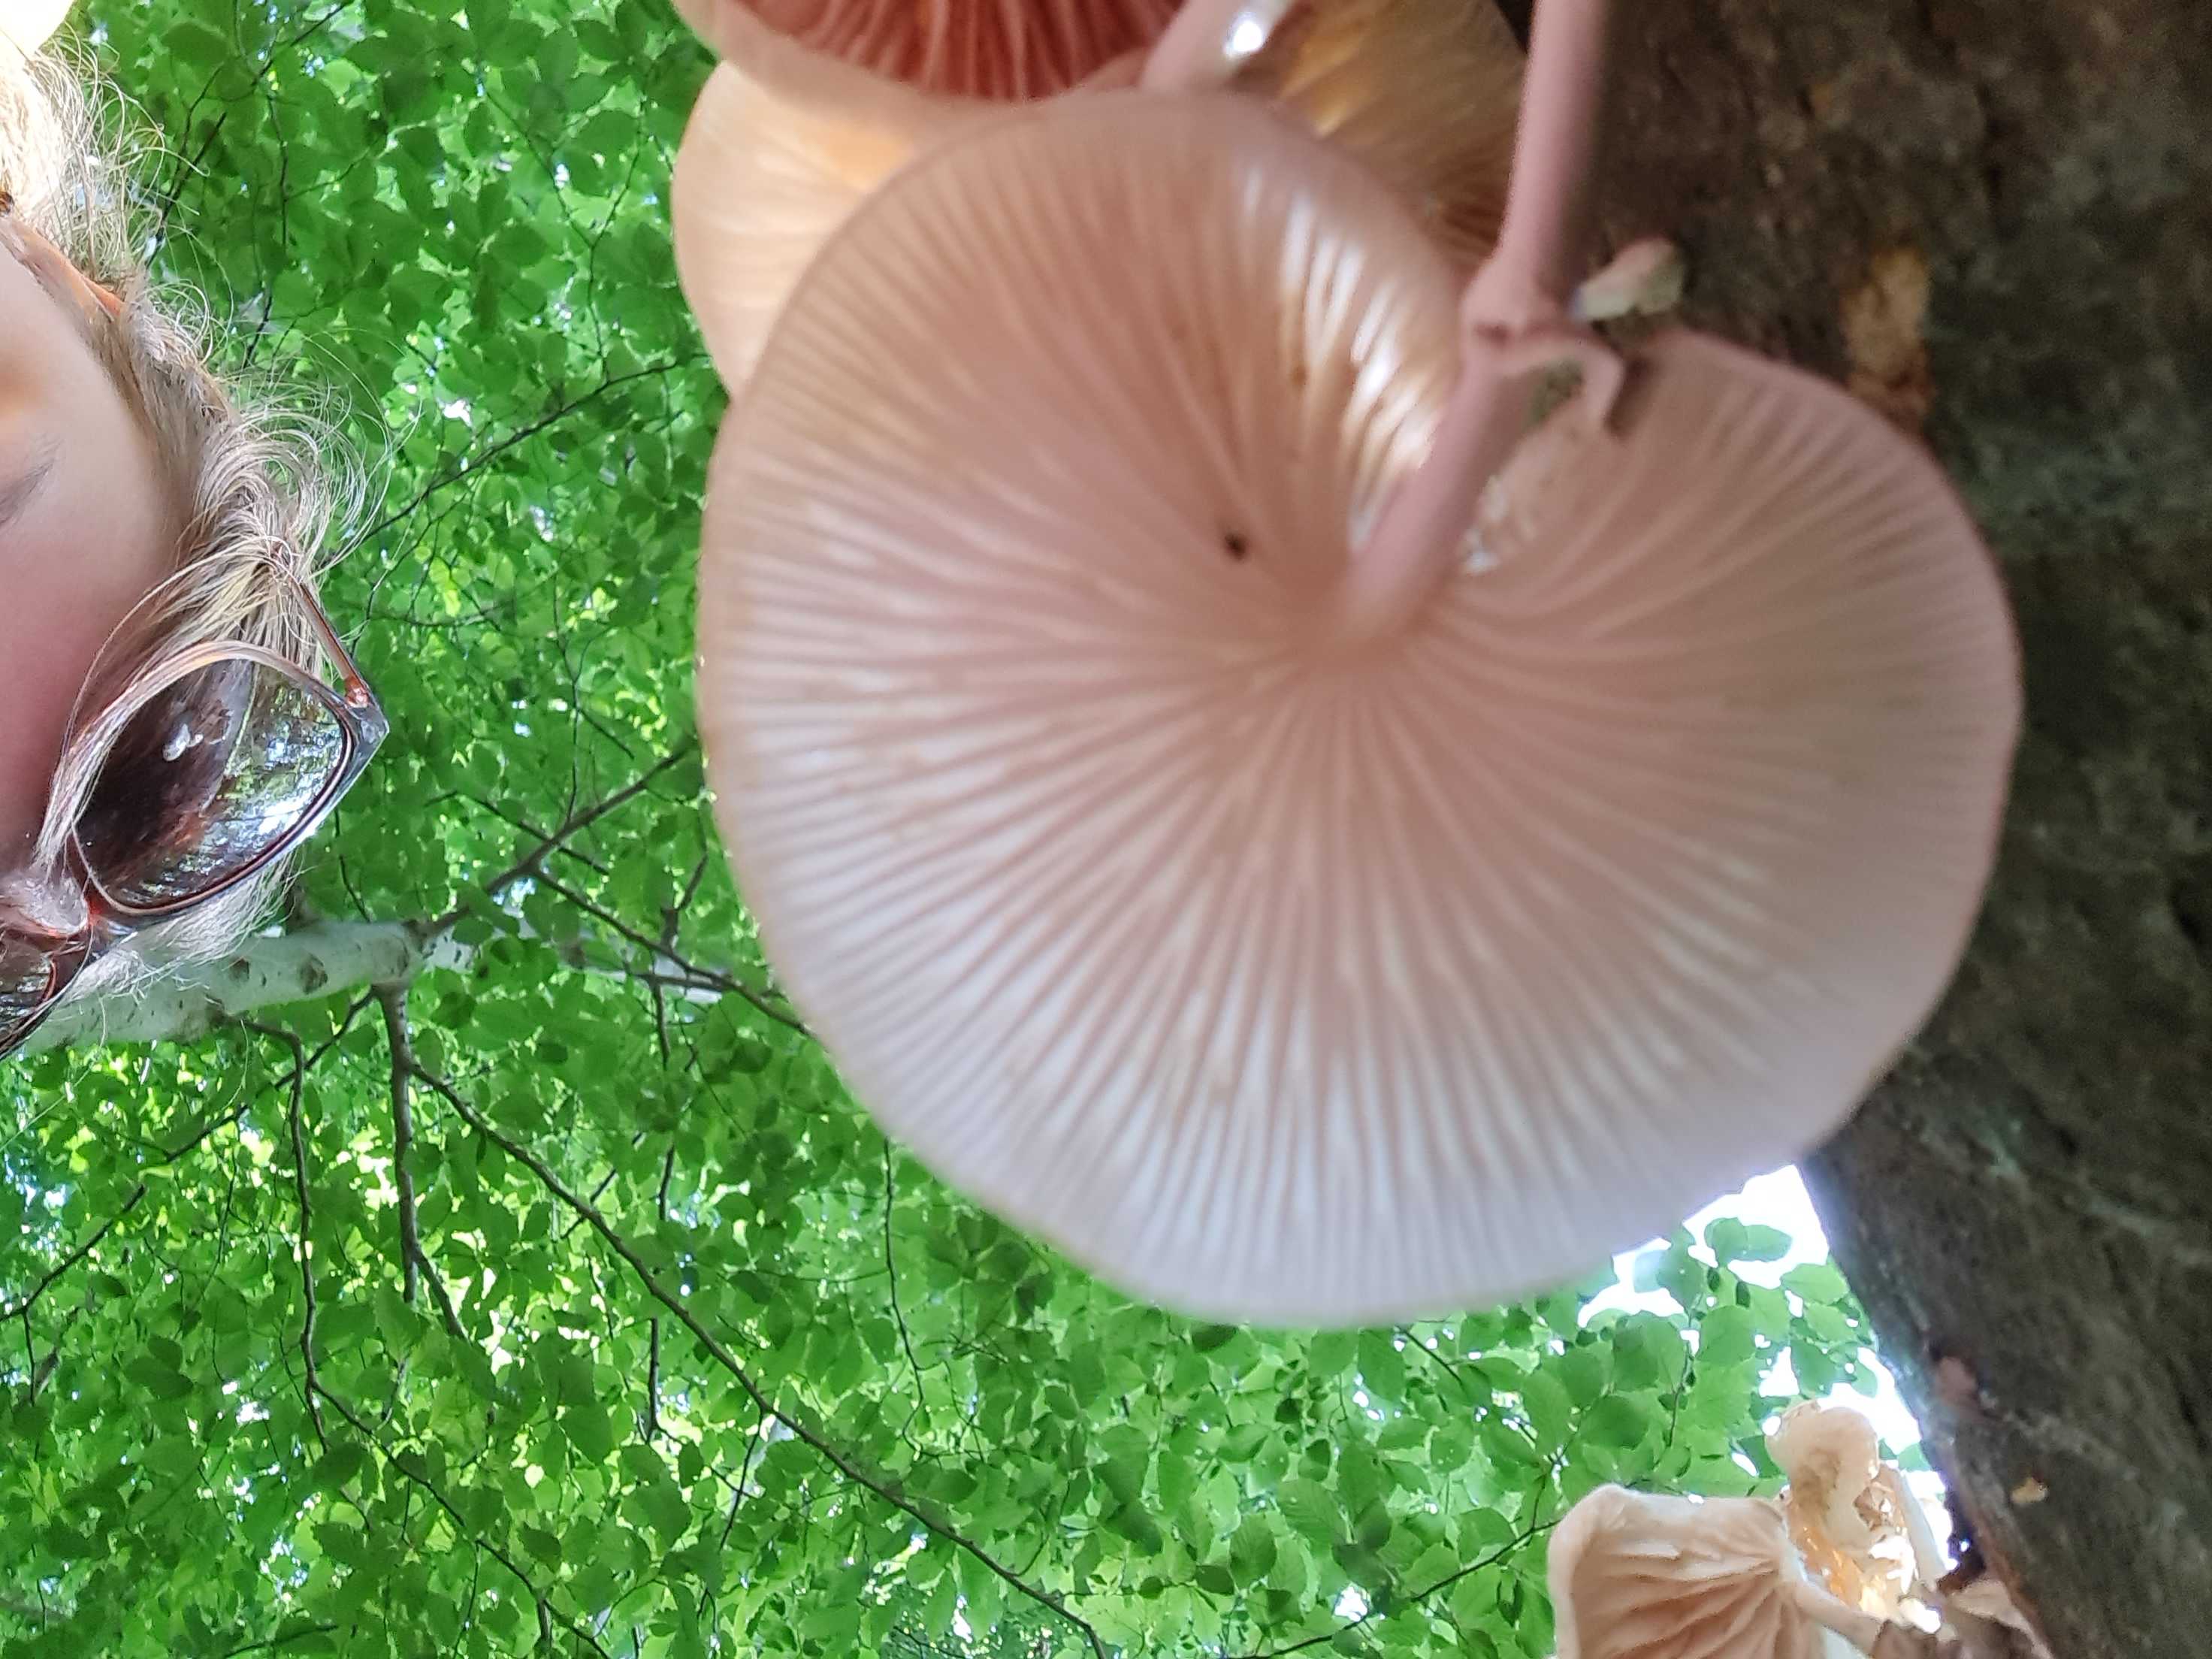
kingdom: Fungi
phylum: Basidiomycota
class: Agaricomycetes
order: Agaricales
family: Physalacriaceae
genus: Mucidula
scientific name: Mucidula mucida
